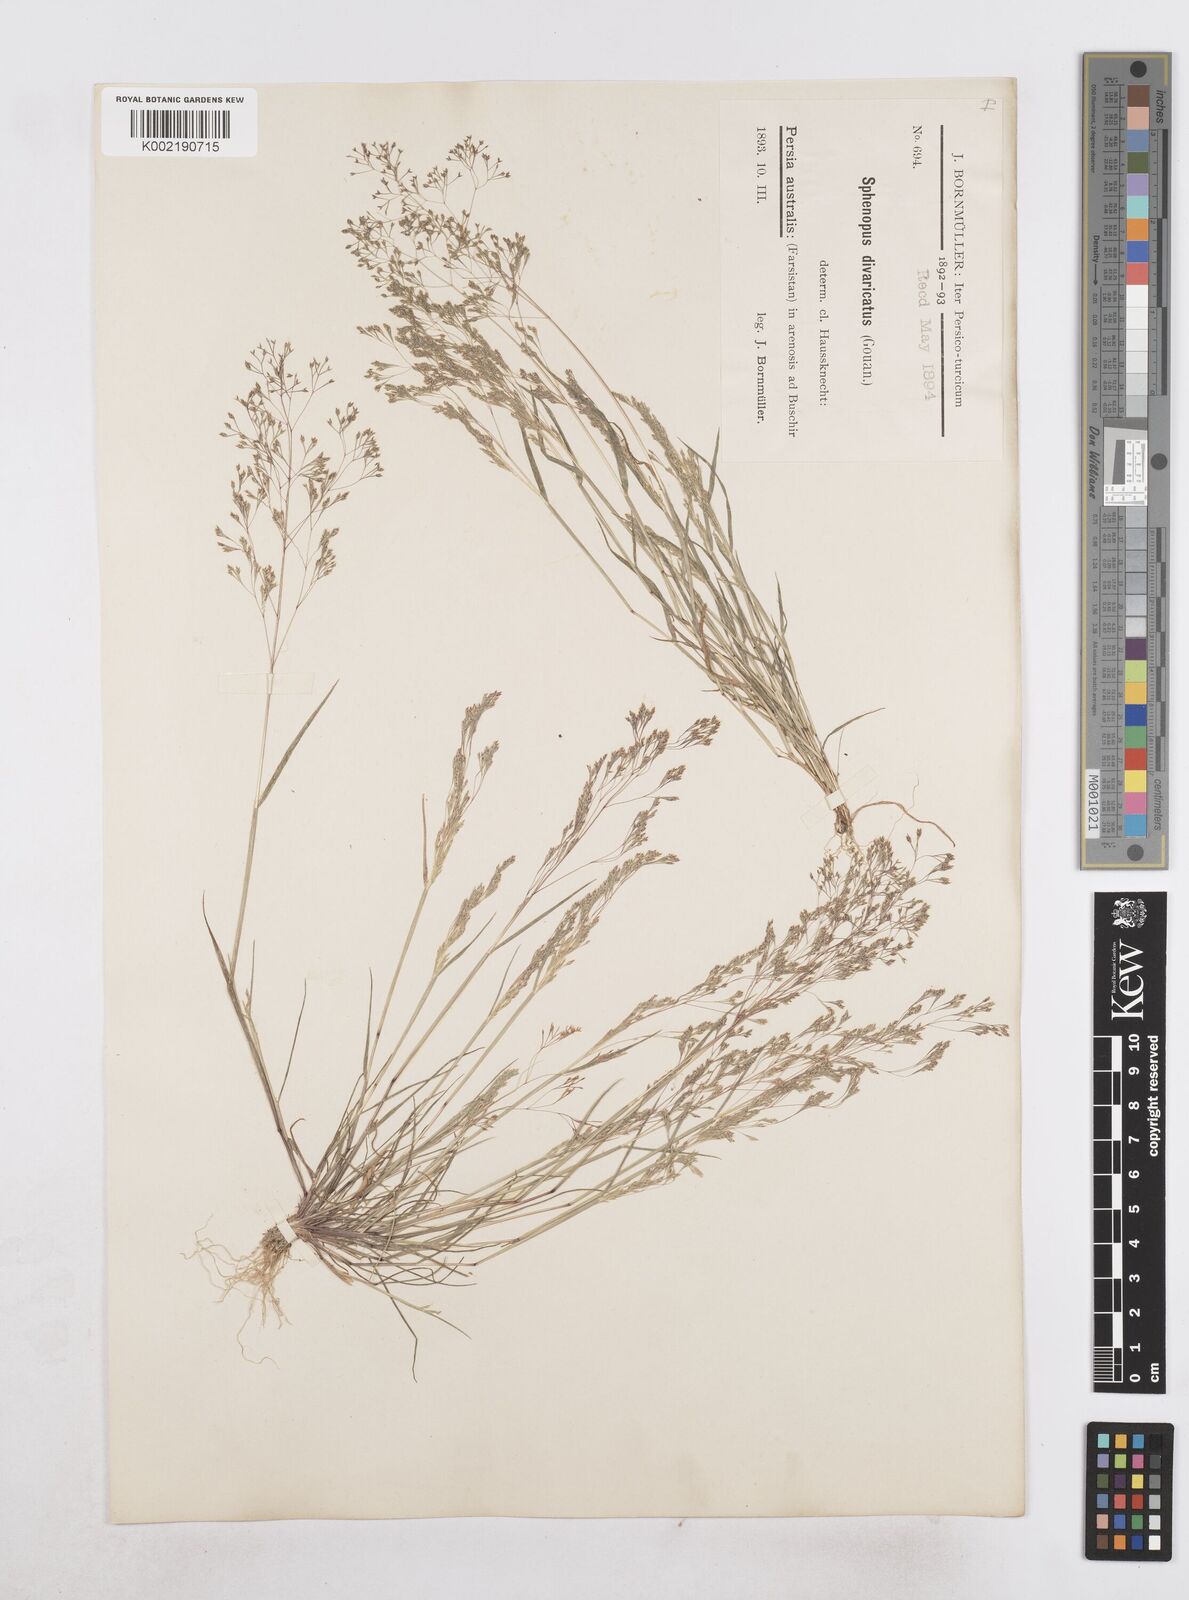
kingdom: Plantae
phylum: Tracheophyta
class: Liliopsida
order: Poales
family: Poaceae
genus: Sphenopus
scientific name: Sphenopus divaricatus
